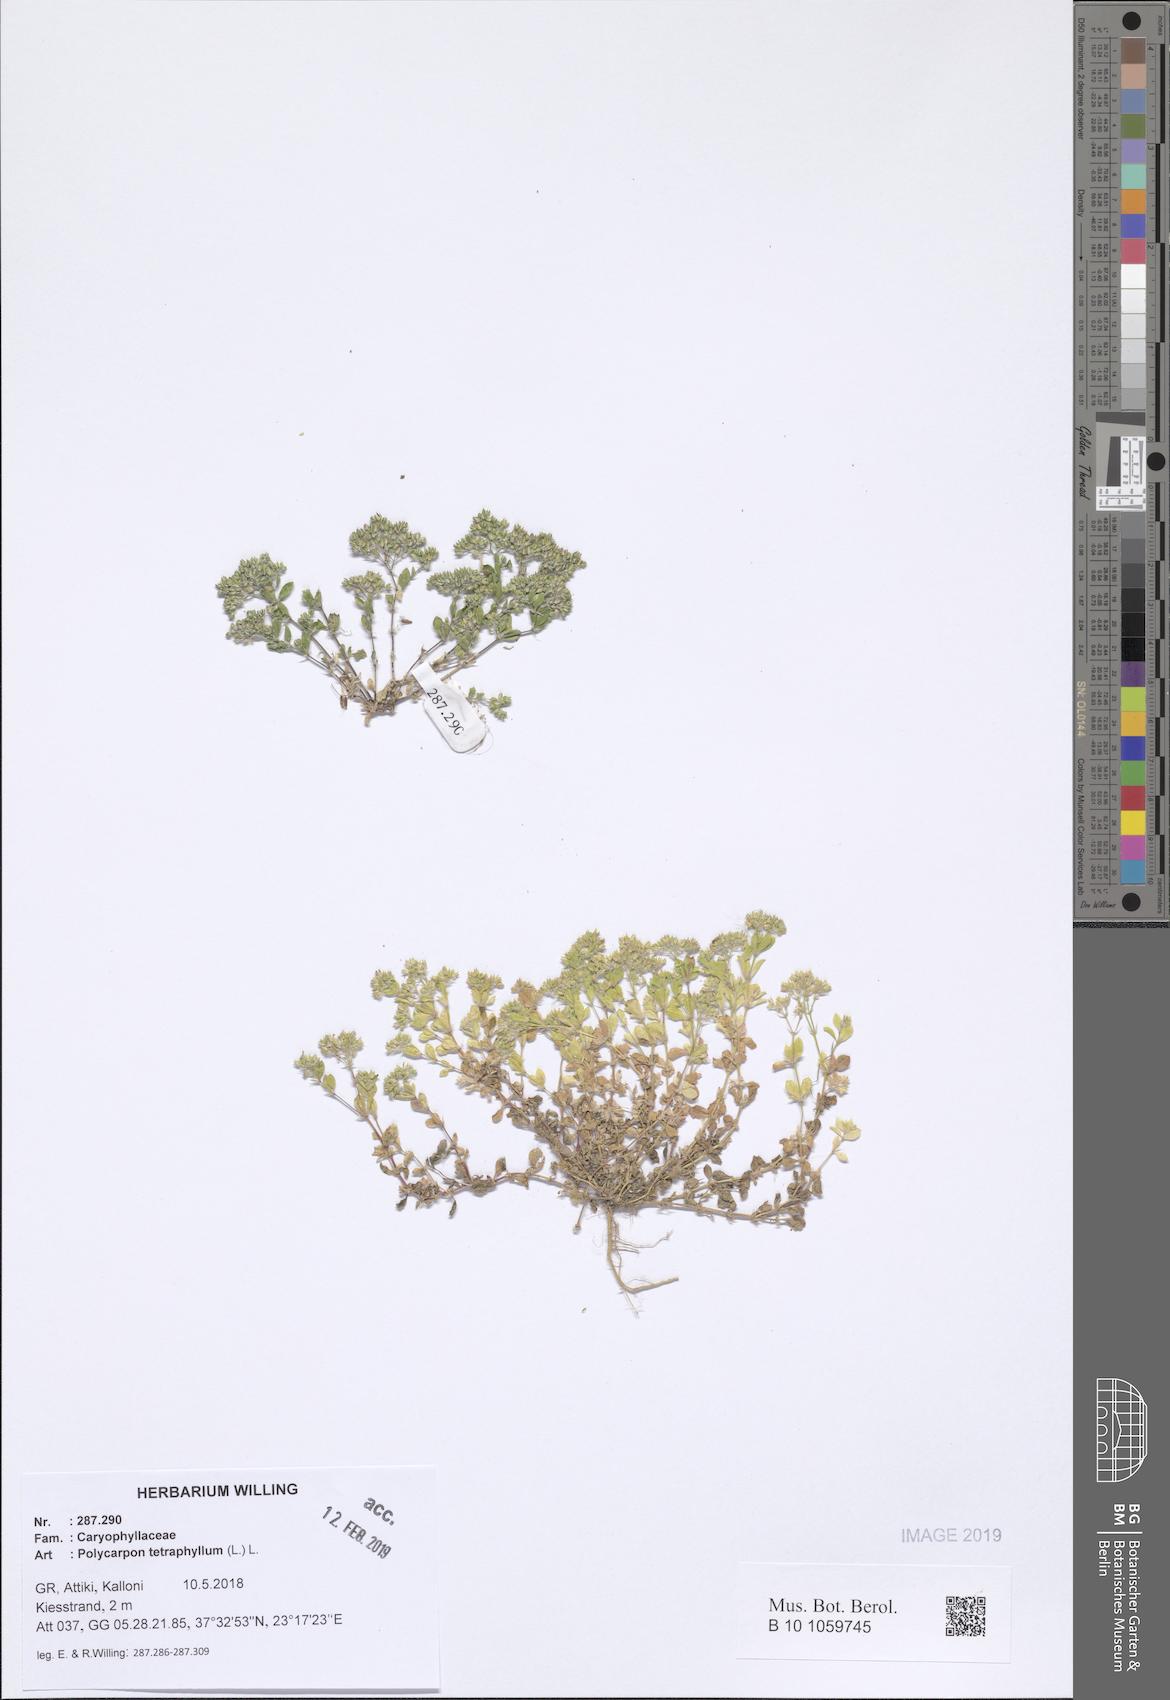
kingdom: Plantae
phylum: Tracheophyta
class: Magnoliopsida
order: Caryophyllales
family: Caryophyllaceae
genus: Polycarpon
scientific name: Polycarpon tetraphyllum
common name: Four-leaved all-seed
